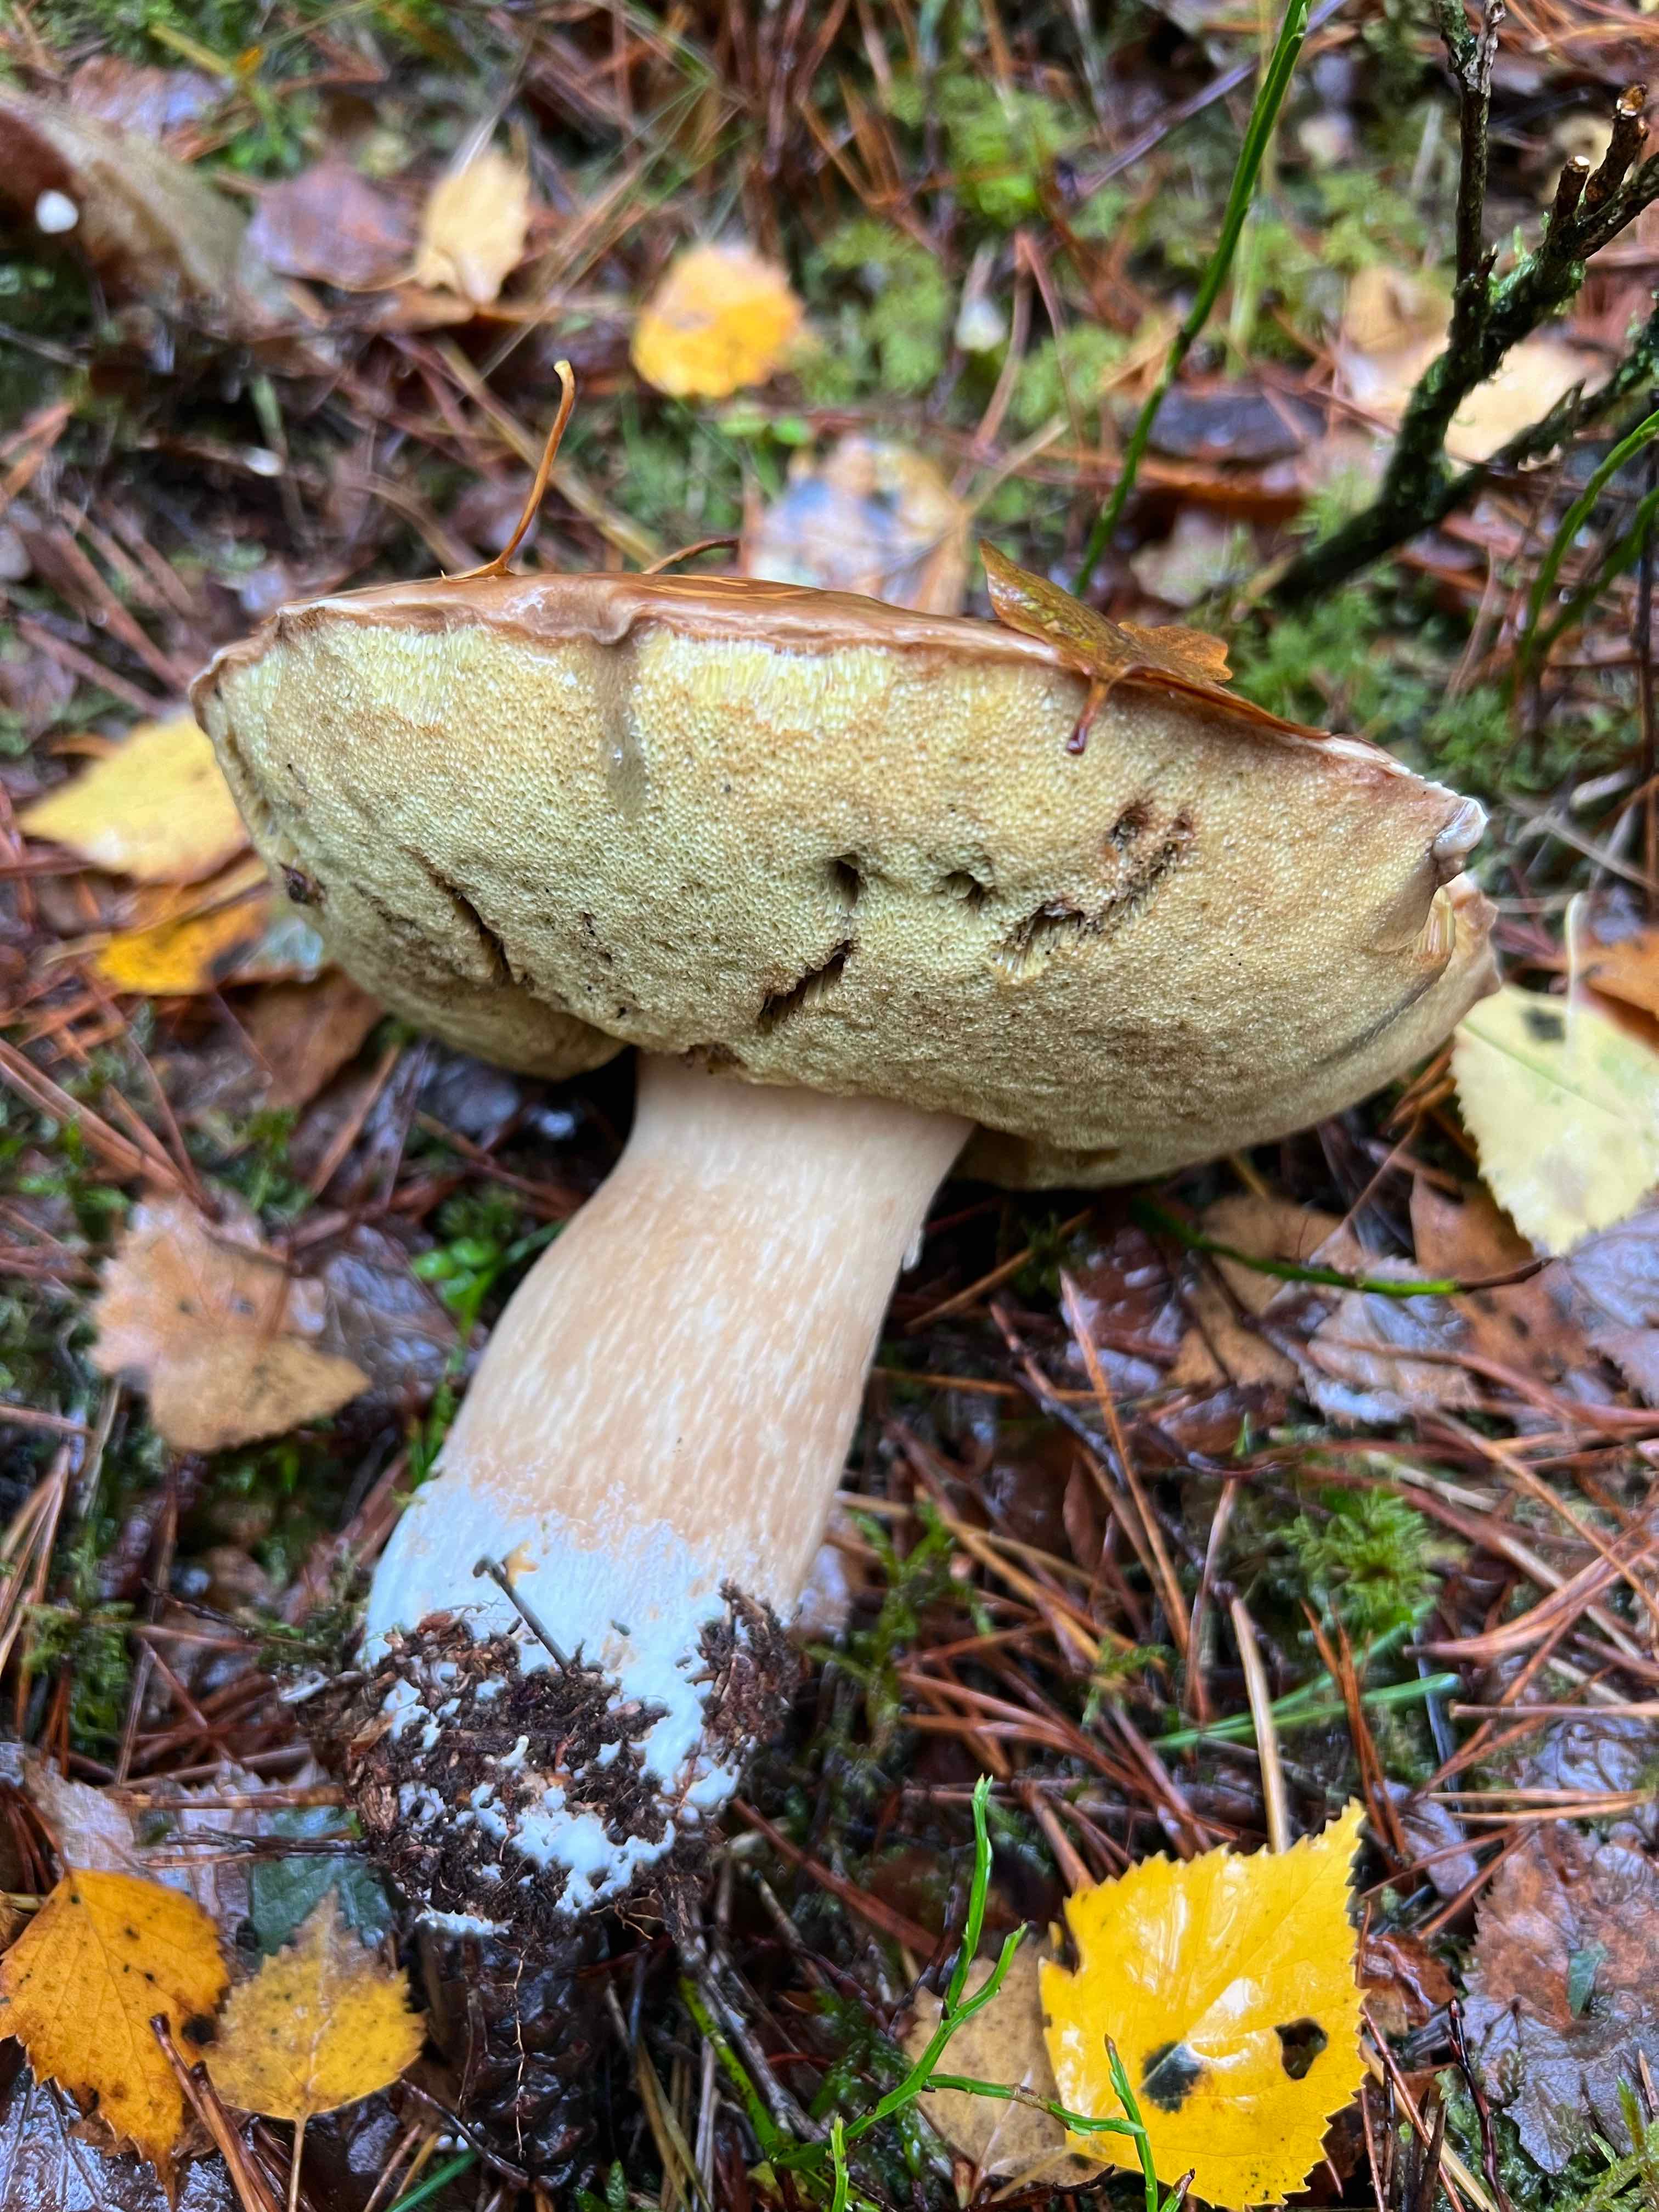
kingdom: Fungi
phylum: Basidiomycota
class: Agaricomycetes
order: Boletales
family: Boletaceae
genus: Boletus
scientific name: Boletus edulis
